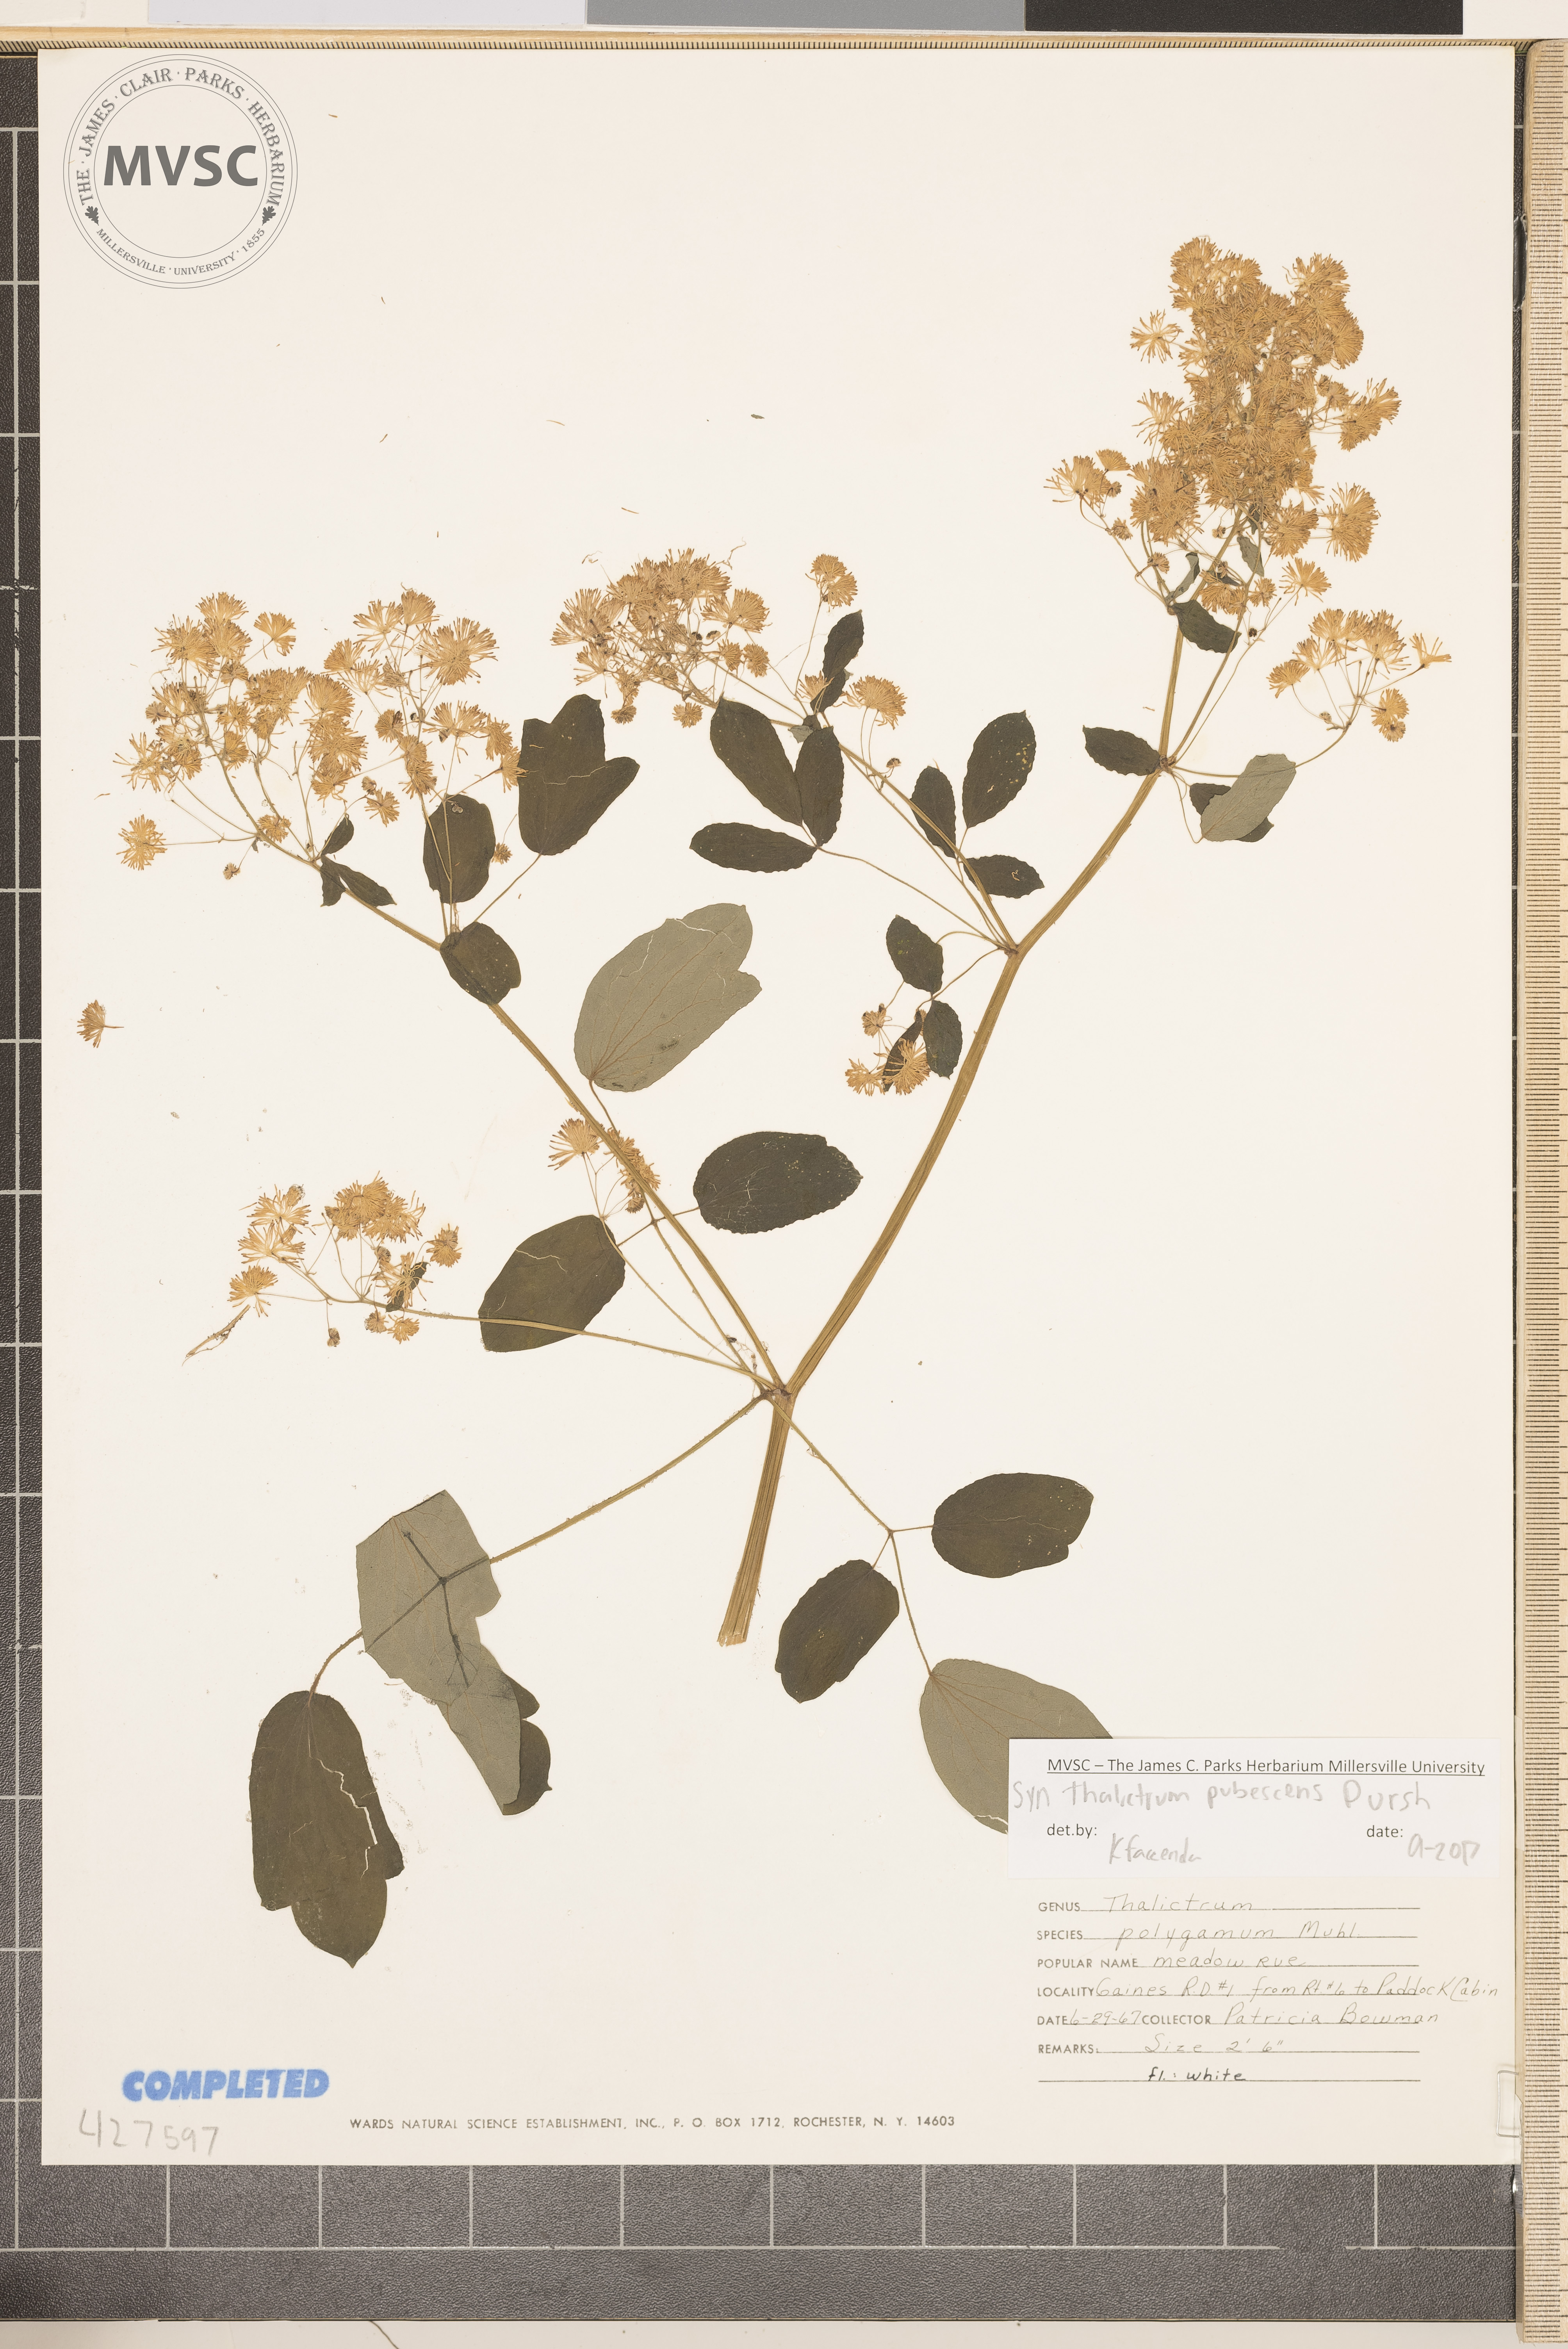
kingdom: Plantae
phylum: Tracheophyta
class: Magnoliopsida
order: Ranunculales
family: Ranunculaceae
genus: Thalictrum
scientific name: Thalictrum pubescens
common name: King-of-the-meadow
